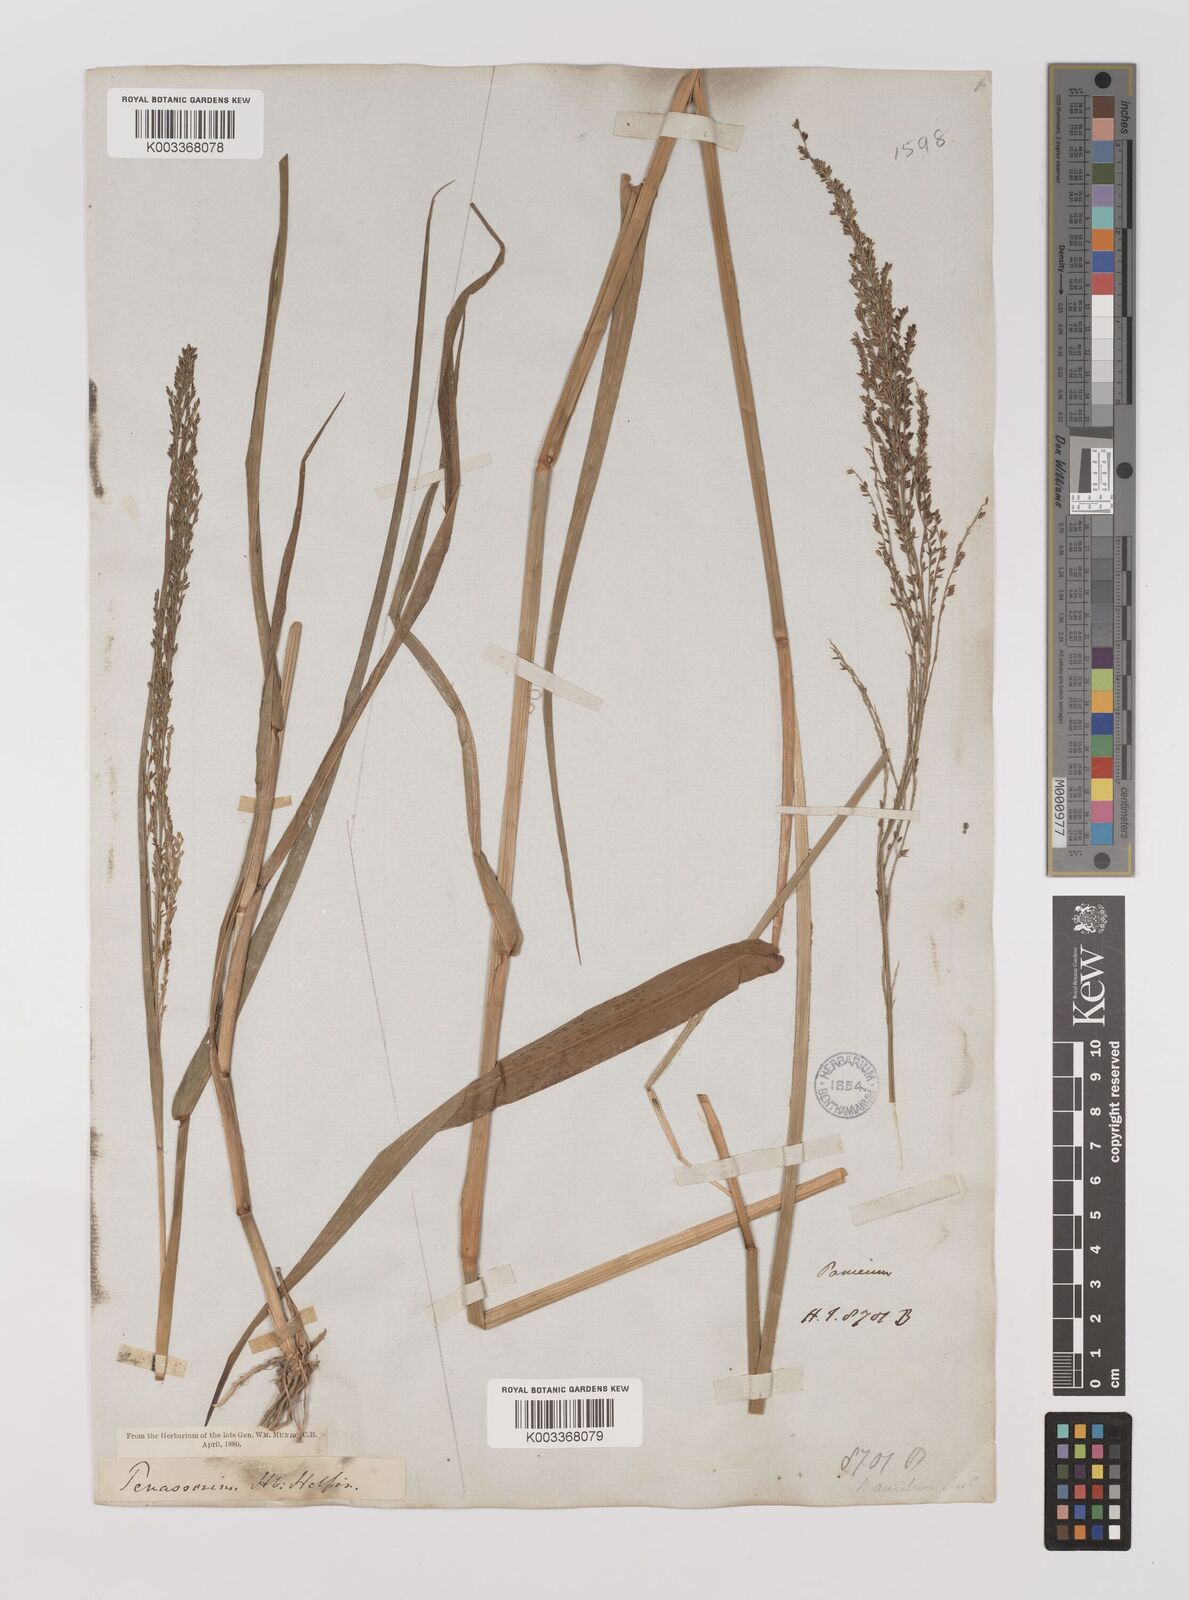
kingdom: Plantae
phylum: Tracheophyta
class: Liliopsida
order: Poales
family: Poaceae
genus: Hymenachne
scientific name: Hymenachne aurita
